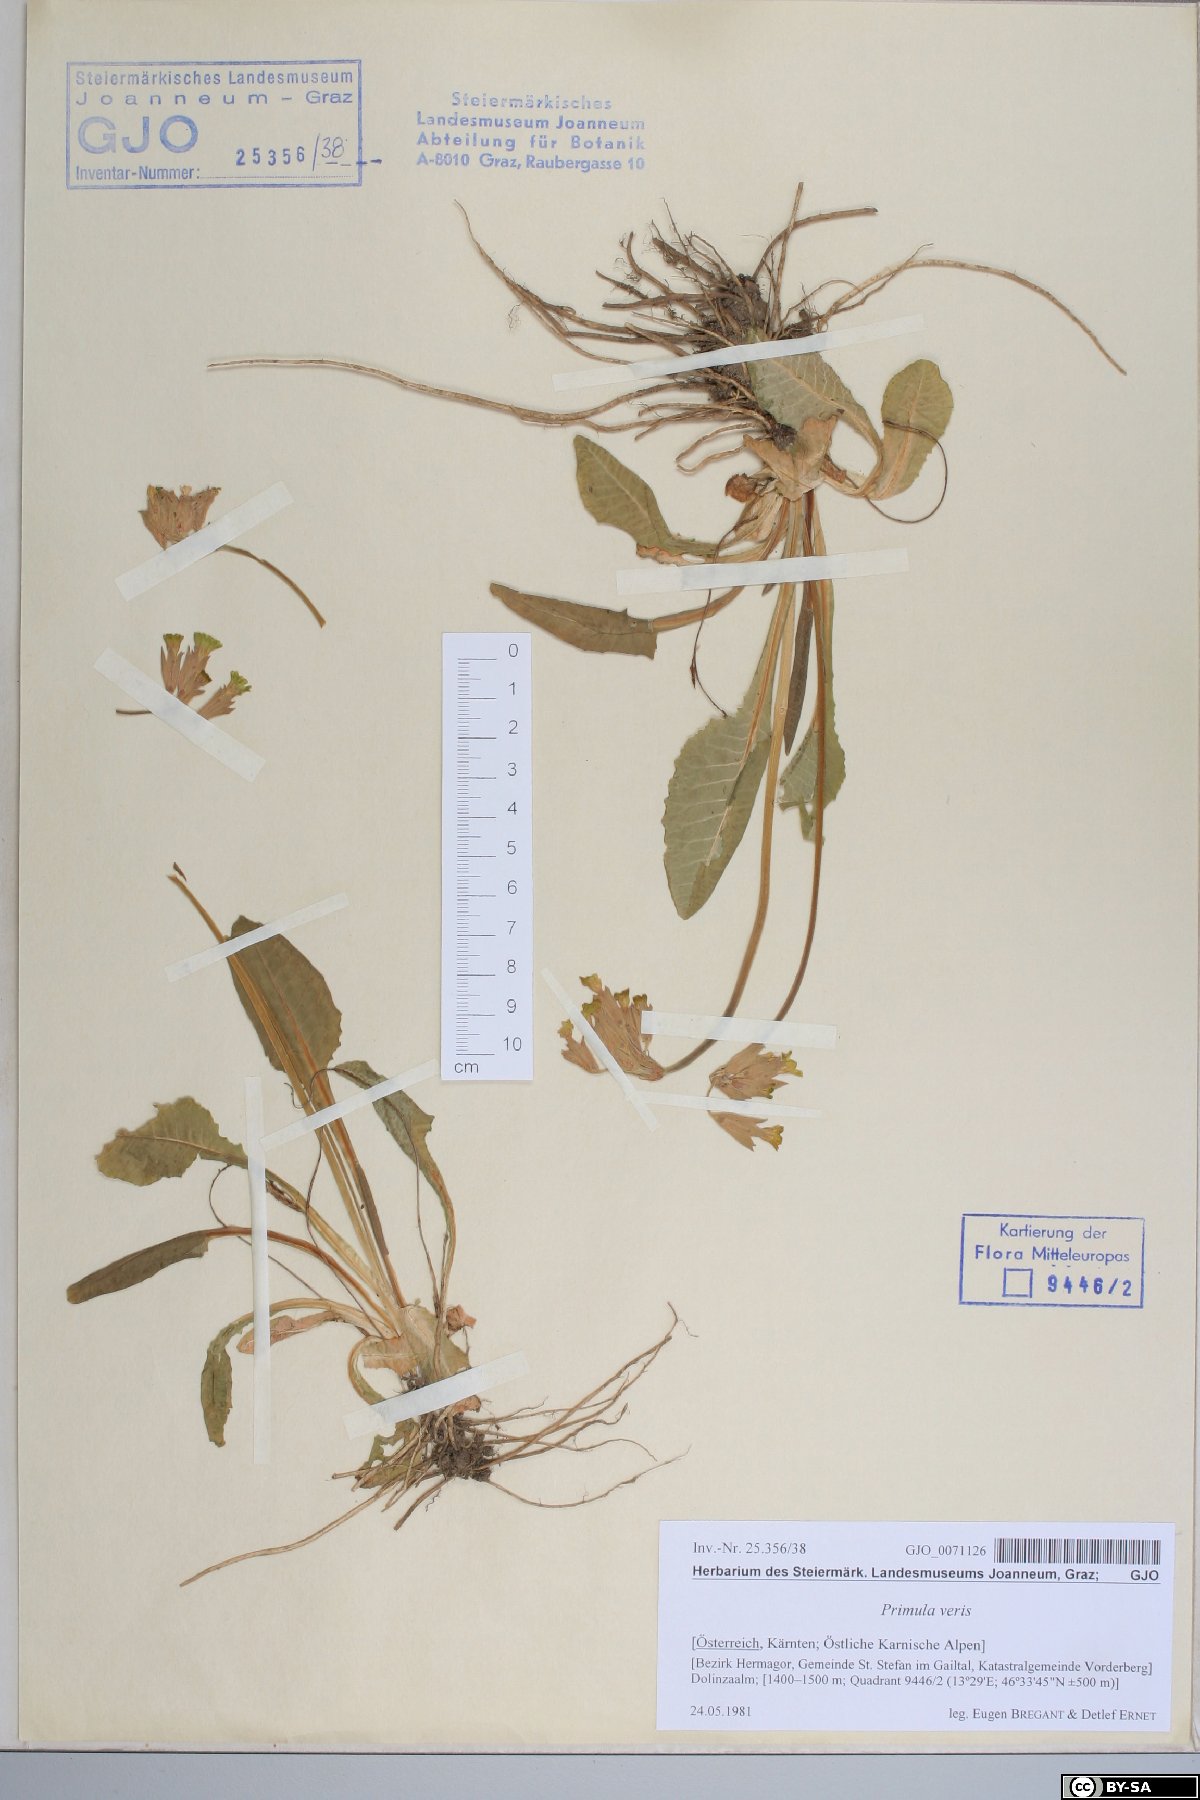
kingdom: Plantae
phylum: Tracheophyta
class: Magnoliopsida
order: Ericales
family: Primulaceae
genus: Primula
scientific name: Primula veris
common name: Cowslip
